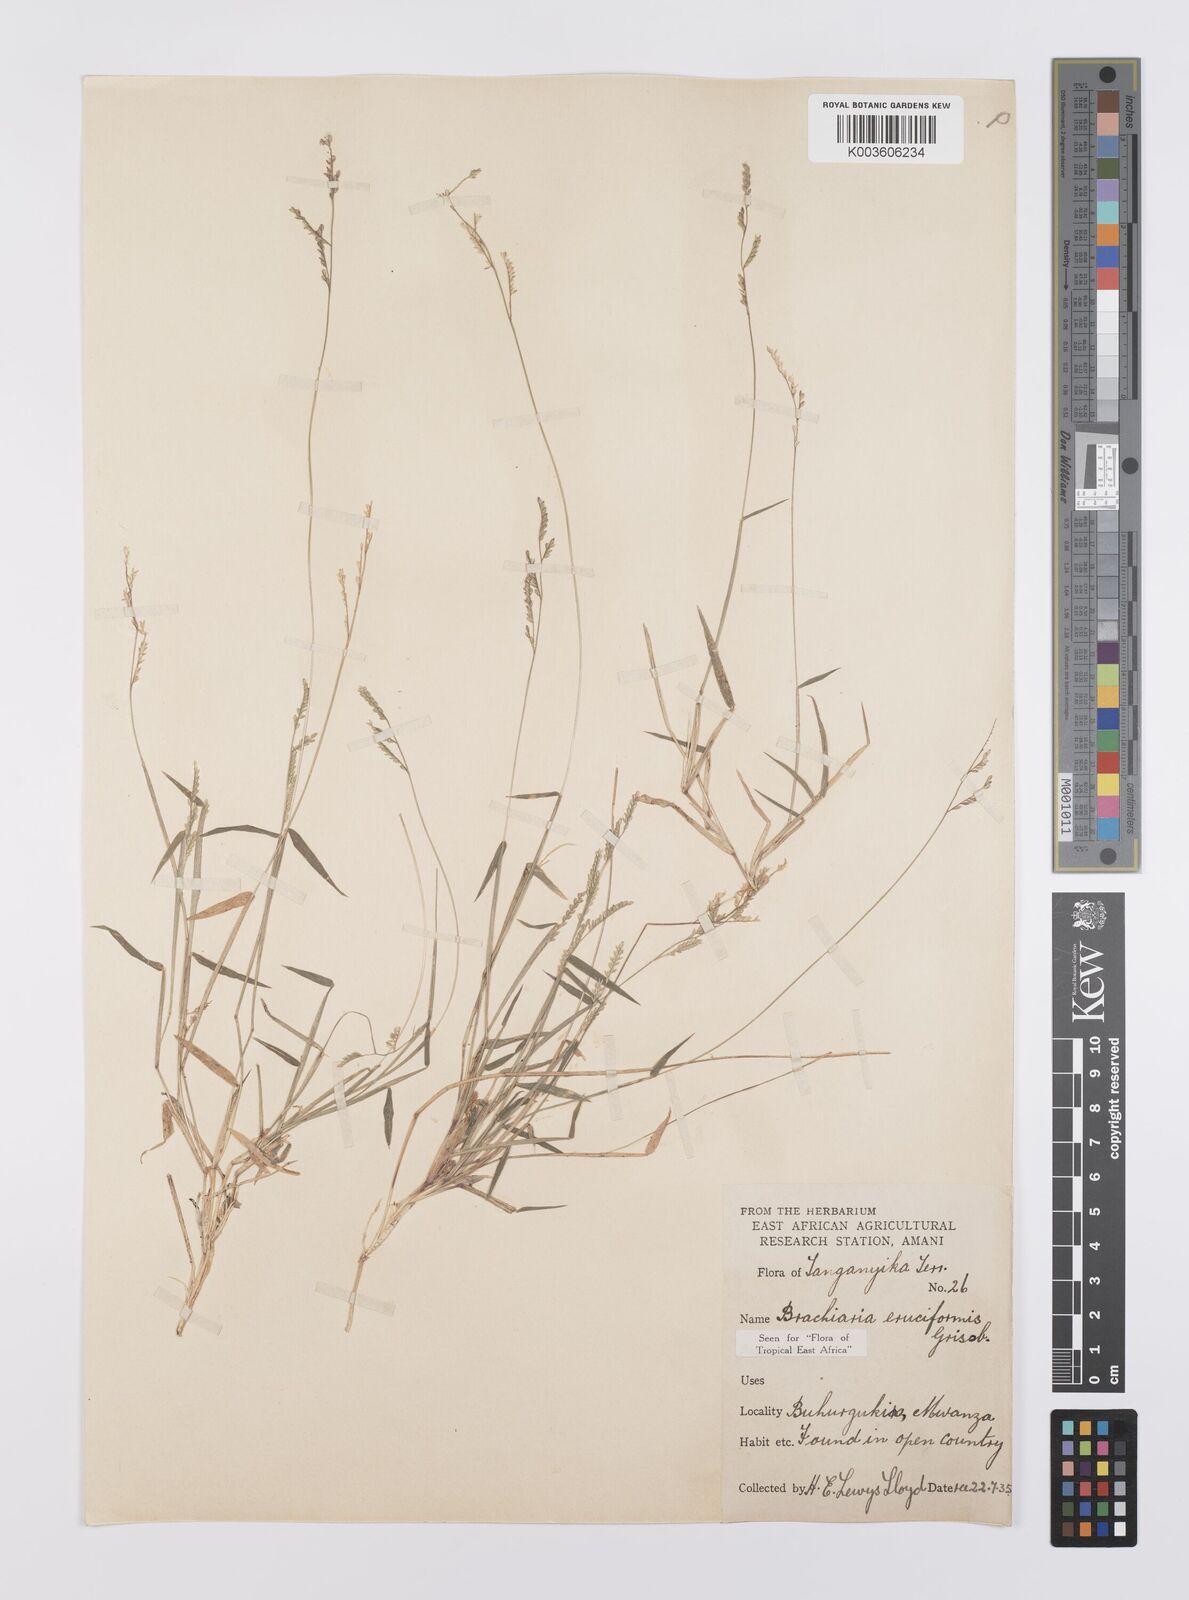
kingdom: Plantae
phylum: Tracheophyta
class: Liliopsida
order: Poales
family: Poaceae
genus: Moorochloa
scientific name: Moorochloa eruciformis
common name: Sweet signalgrass
